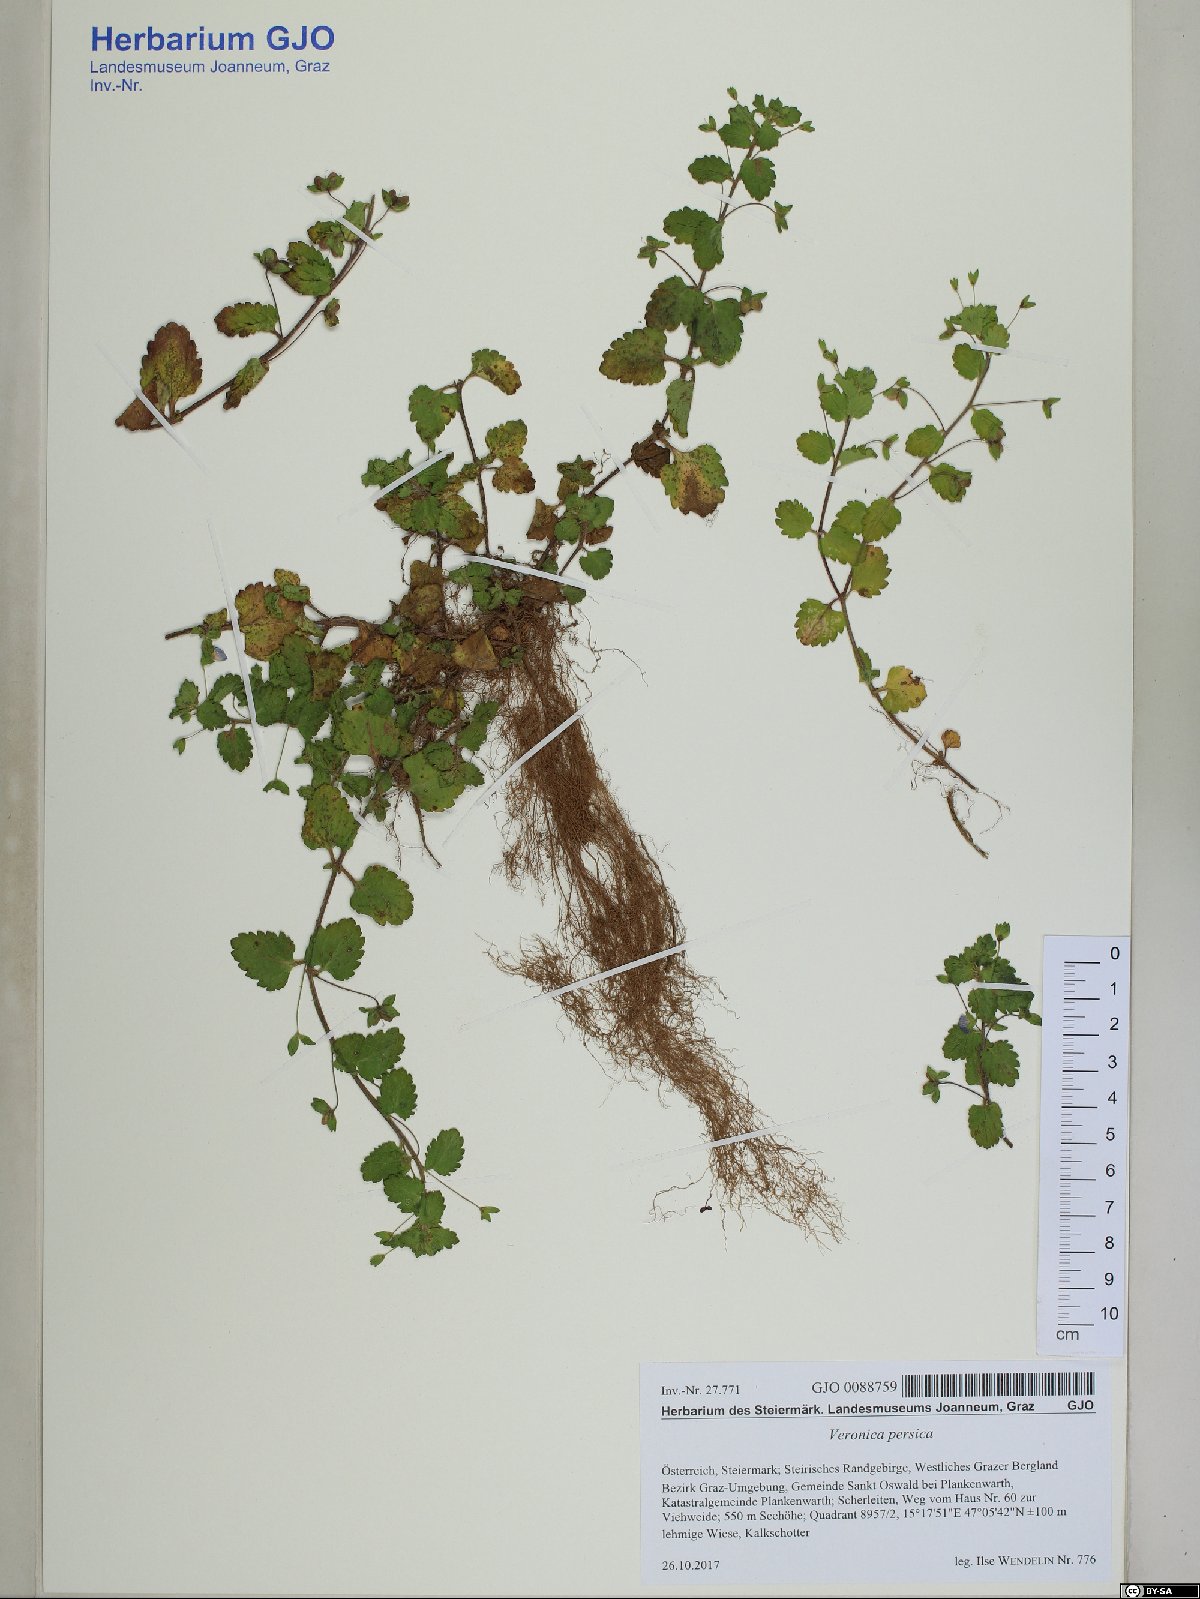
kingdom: Plantae
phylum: Tracheophyta
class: Magnoliopsida
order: Lamiales
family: Plantaginaceae
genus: Veronica
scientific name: Veronica persica
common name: Common field-speedwell
